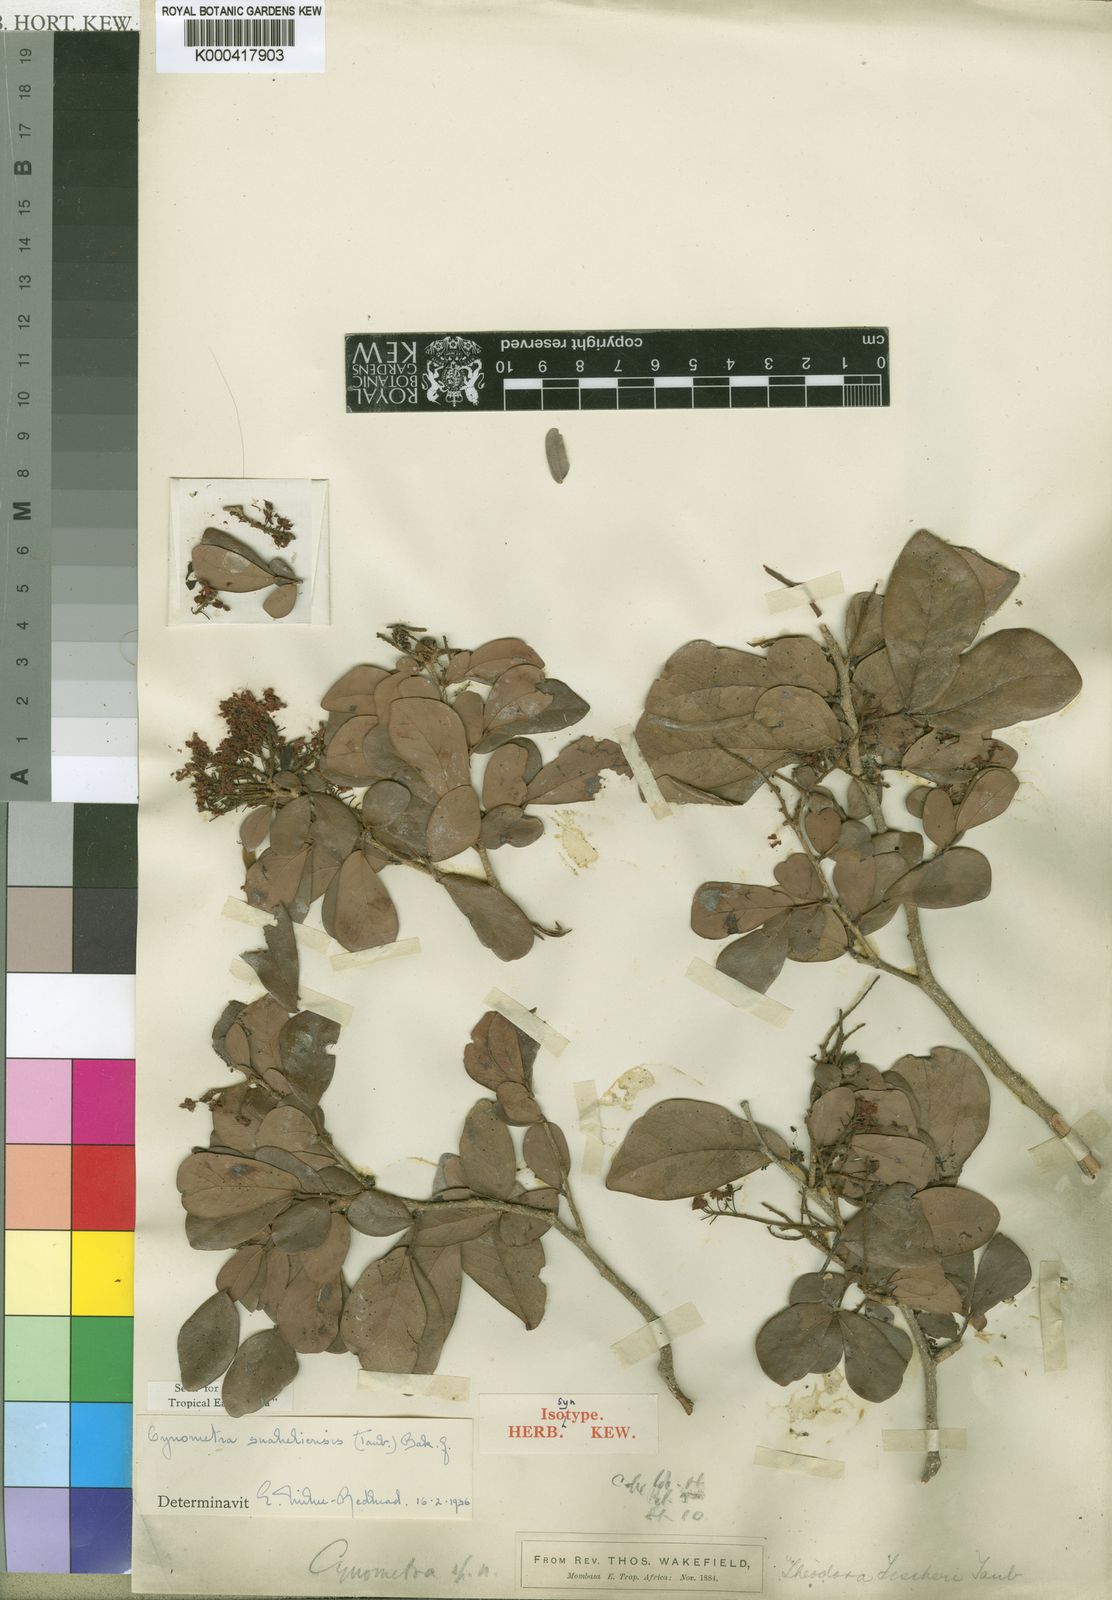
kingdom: Plantae
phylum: Tracheophyta
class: Magnoliopsida
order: Fabales
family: Fabaceae
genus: Cynometra
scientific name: Cynometra suaheliensis
